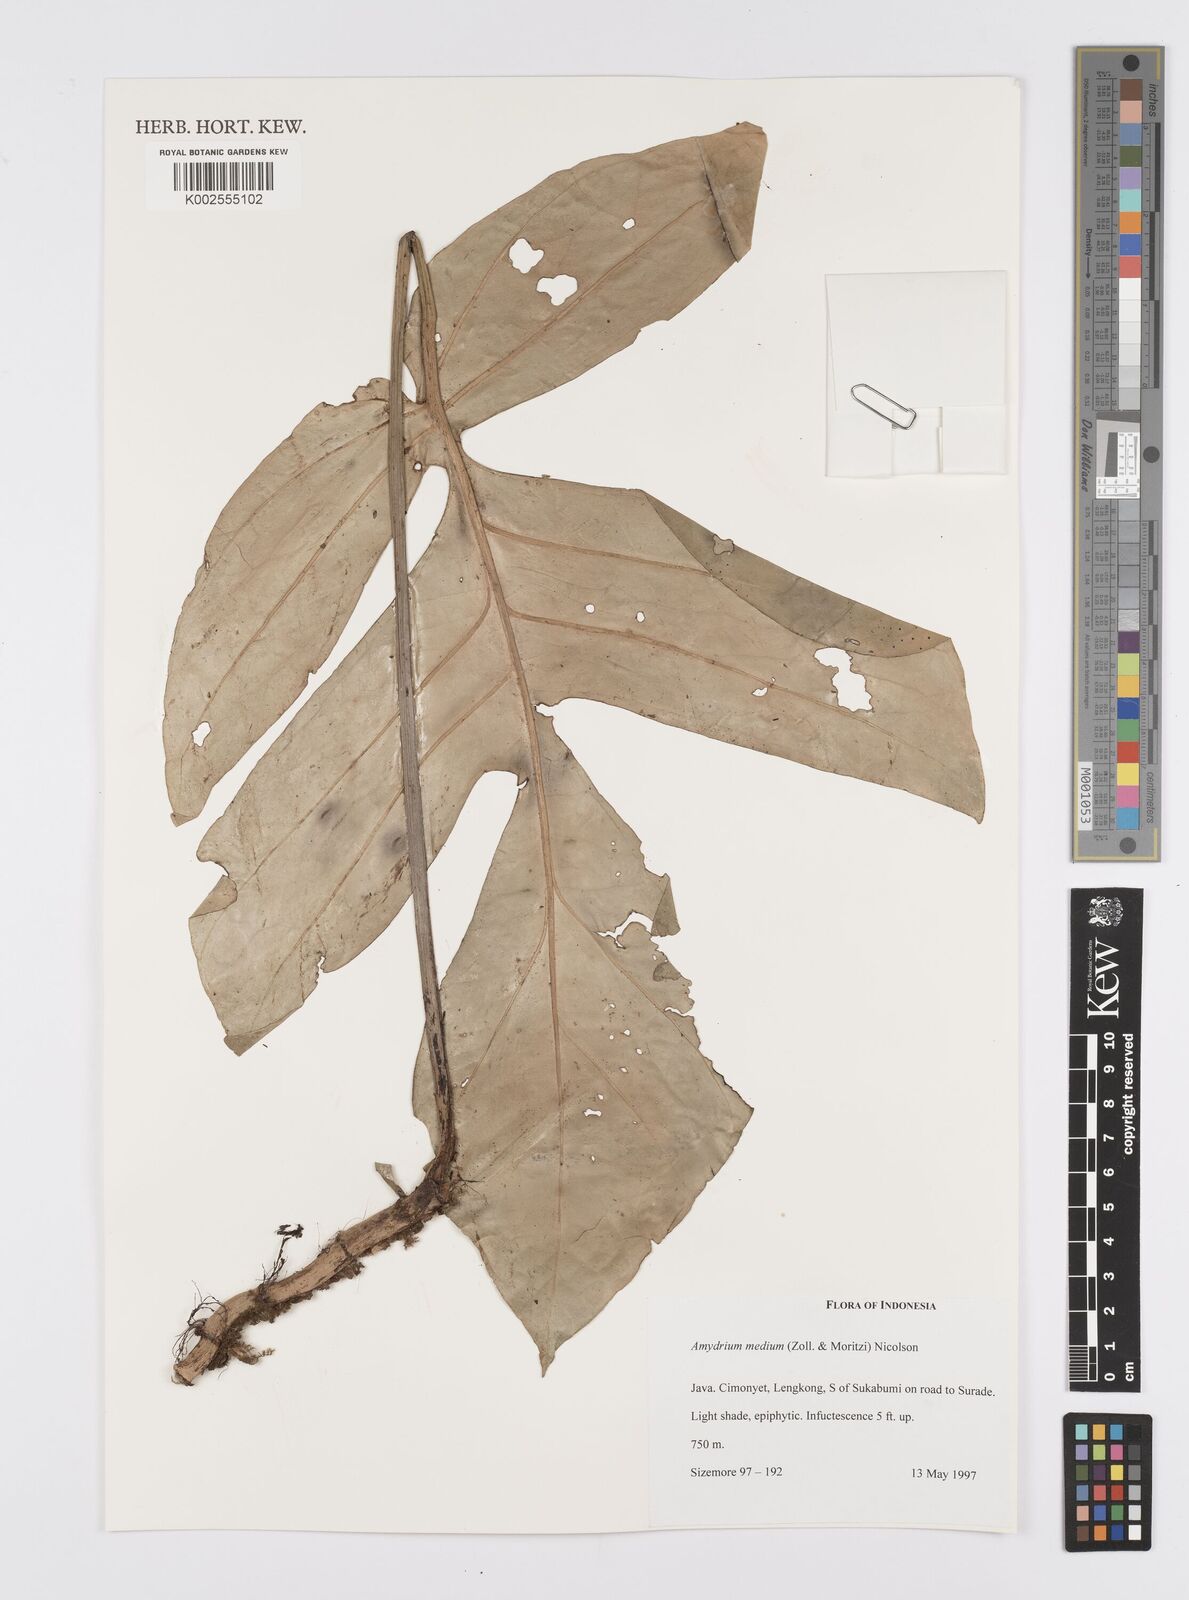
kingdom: Plantae
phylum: Tracheophyta
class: Liliopsida
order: Alismatales
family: Araceae
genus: Amydrium
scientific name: Amydrium medium
